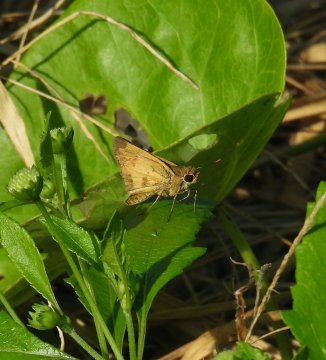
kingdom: Animalia
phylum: Arthropoda
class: Insecta
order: Lepidoptera
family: Hesperiidae
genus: Polites
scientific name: Polites vibex
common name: Whirlabout
